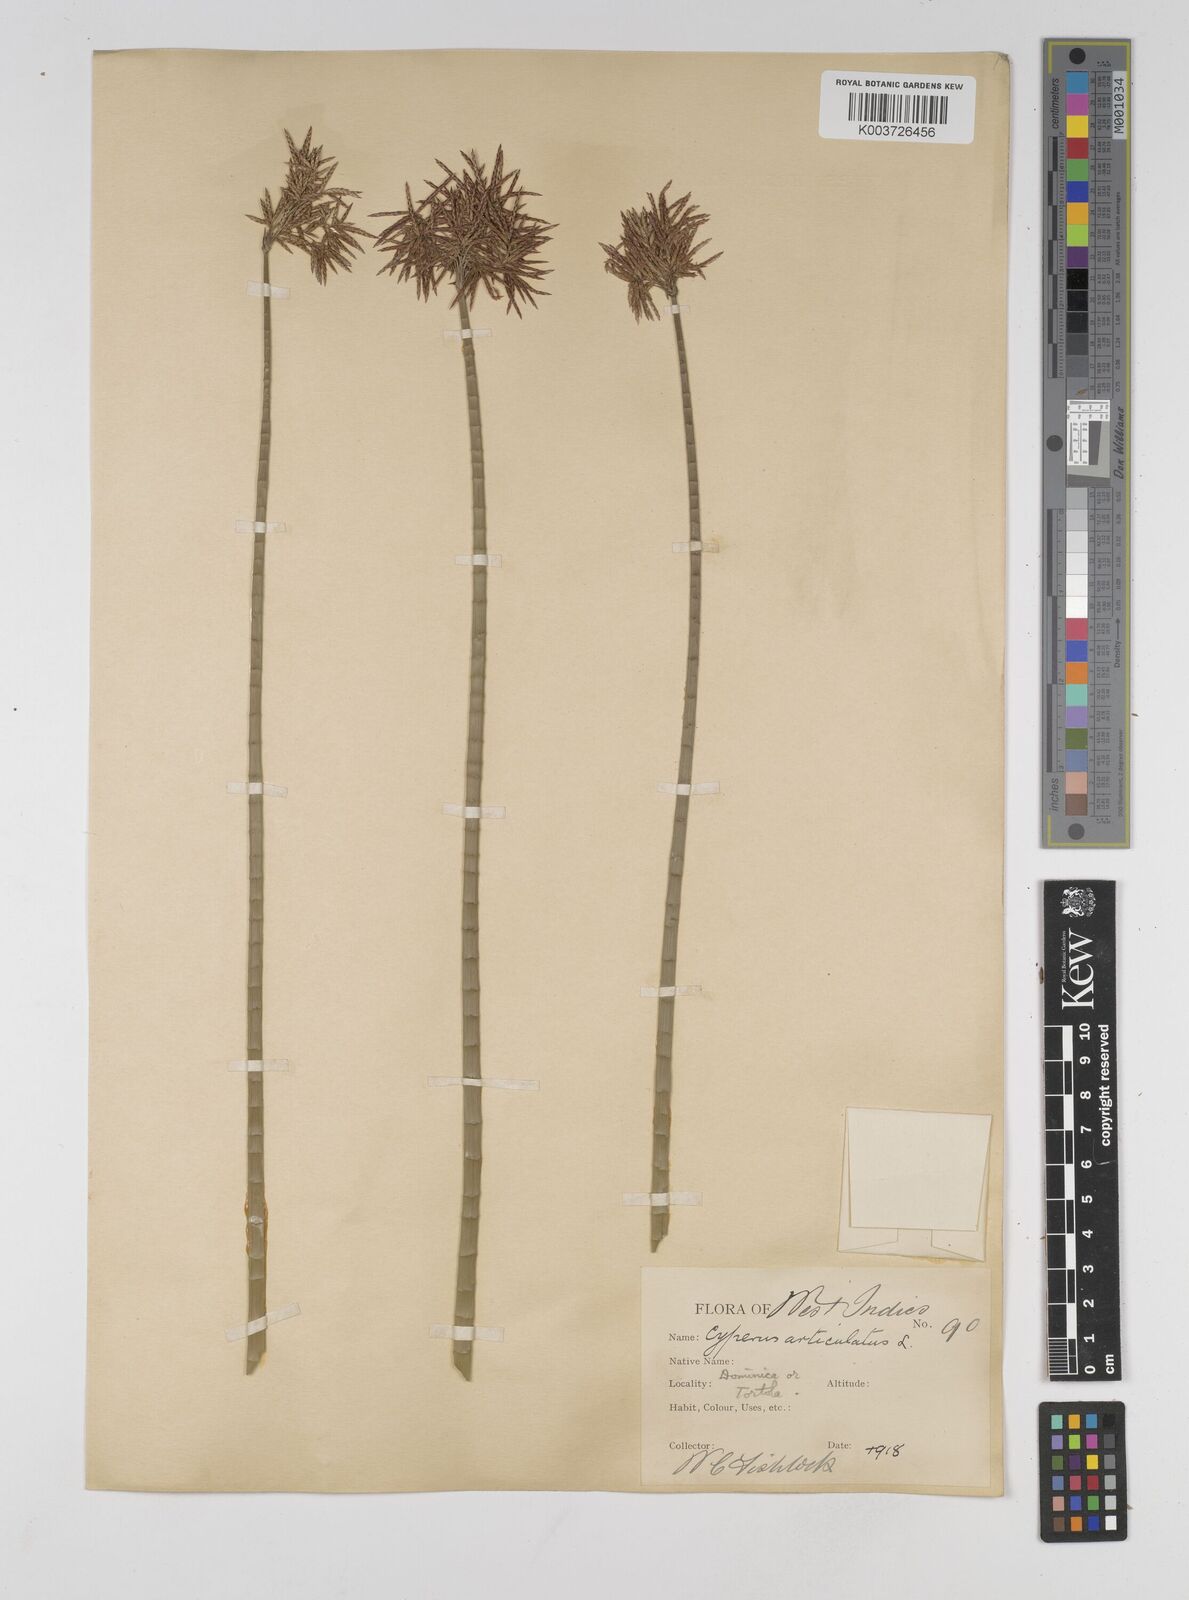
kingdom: Plantae
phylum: Tracheophyta
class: Liliopsida
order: Poales
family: Cyperaceae
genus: Cyperus
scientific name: Cyperus articulatus
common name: Jointed flatsedge
